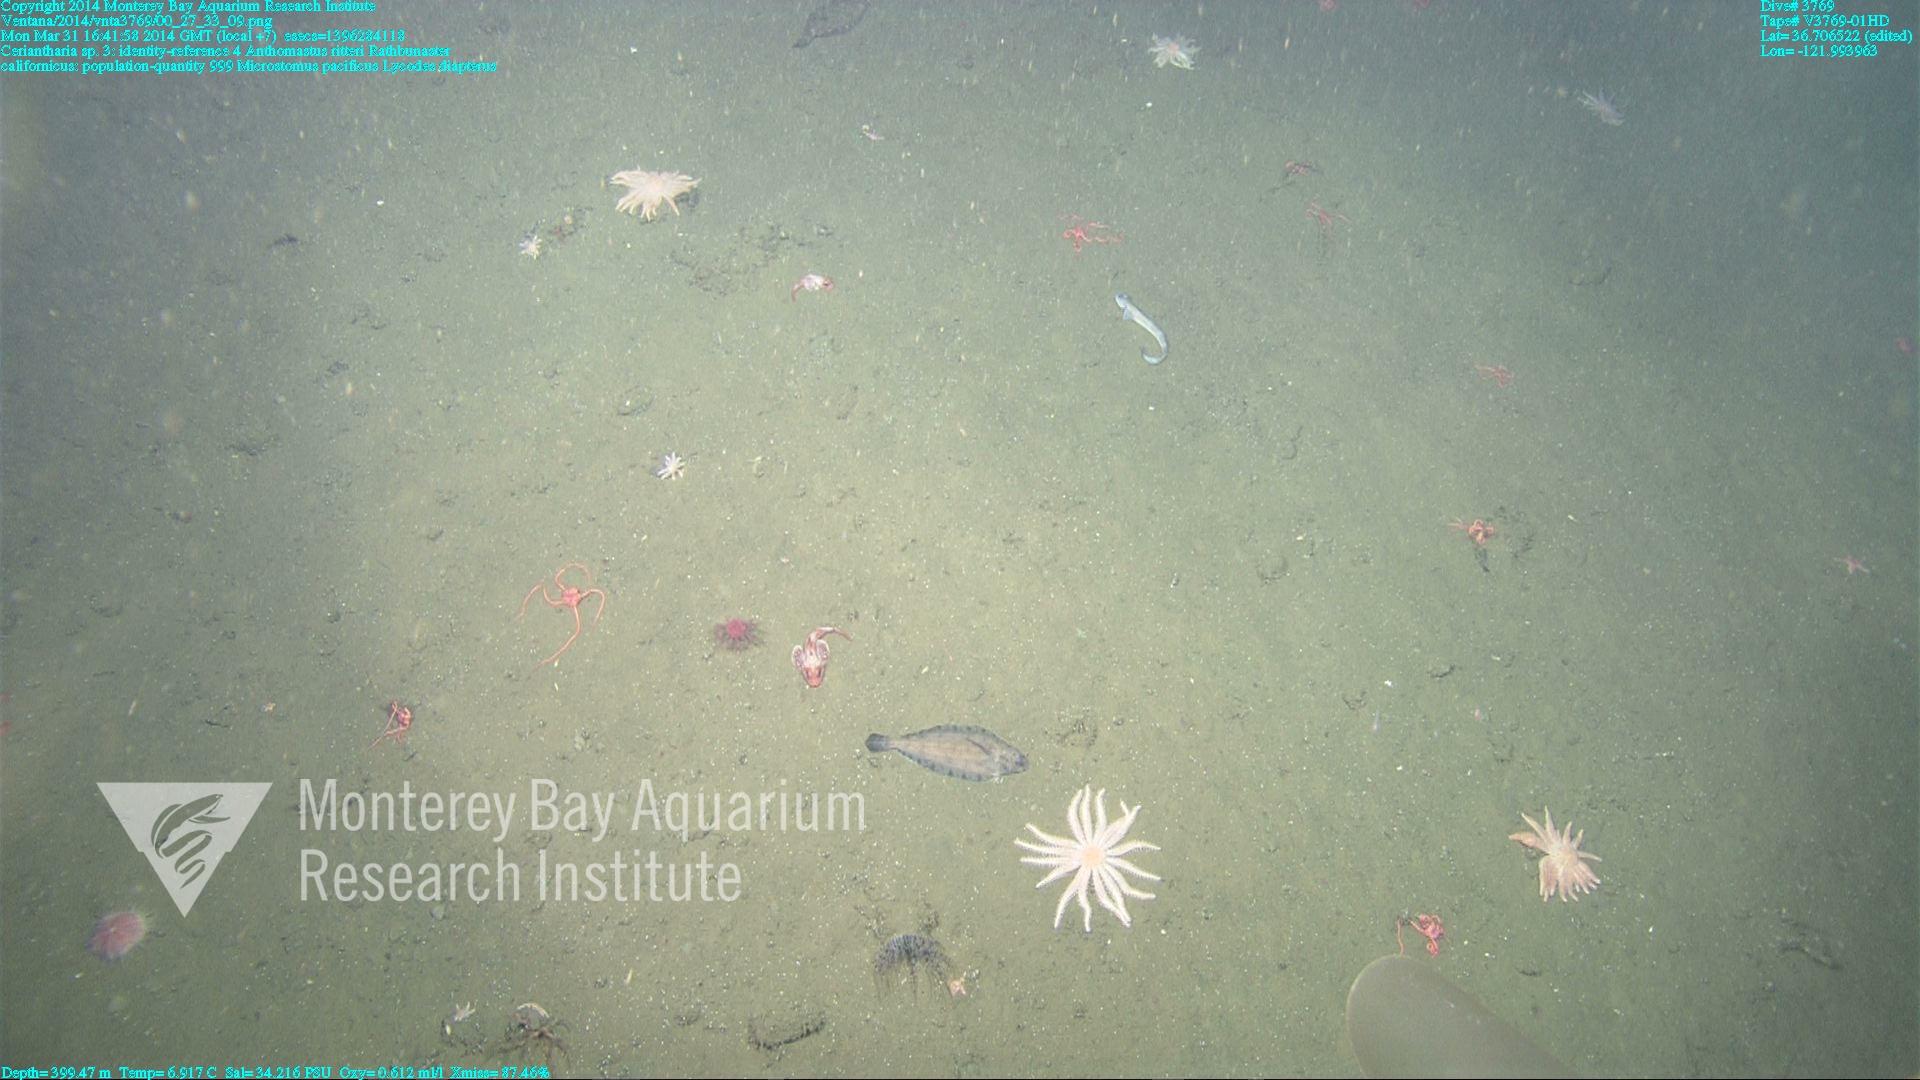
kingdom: Animalia
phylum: Cnidaria
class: Anthozoa
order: Scleralcyonacea
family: Coralliidae
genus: Heteropolypus
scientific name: Heteropolypus ritteri
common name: Ritter's soft coral
